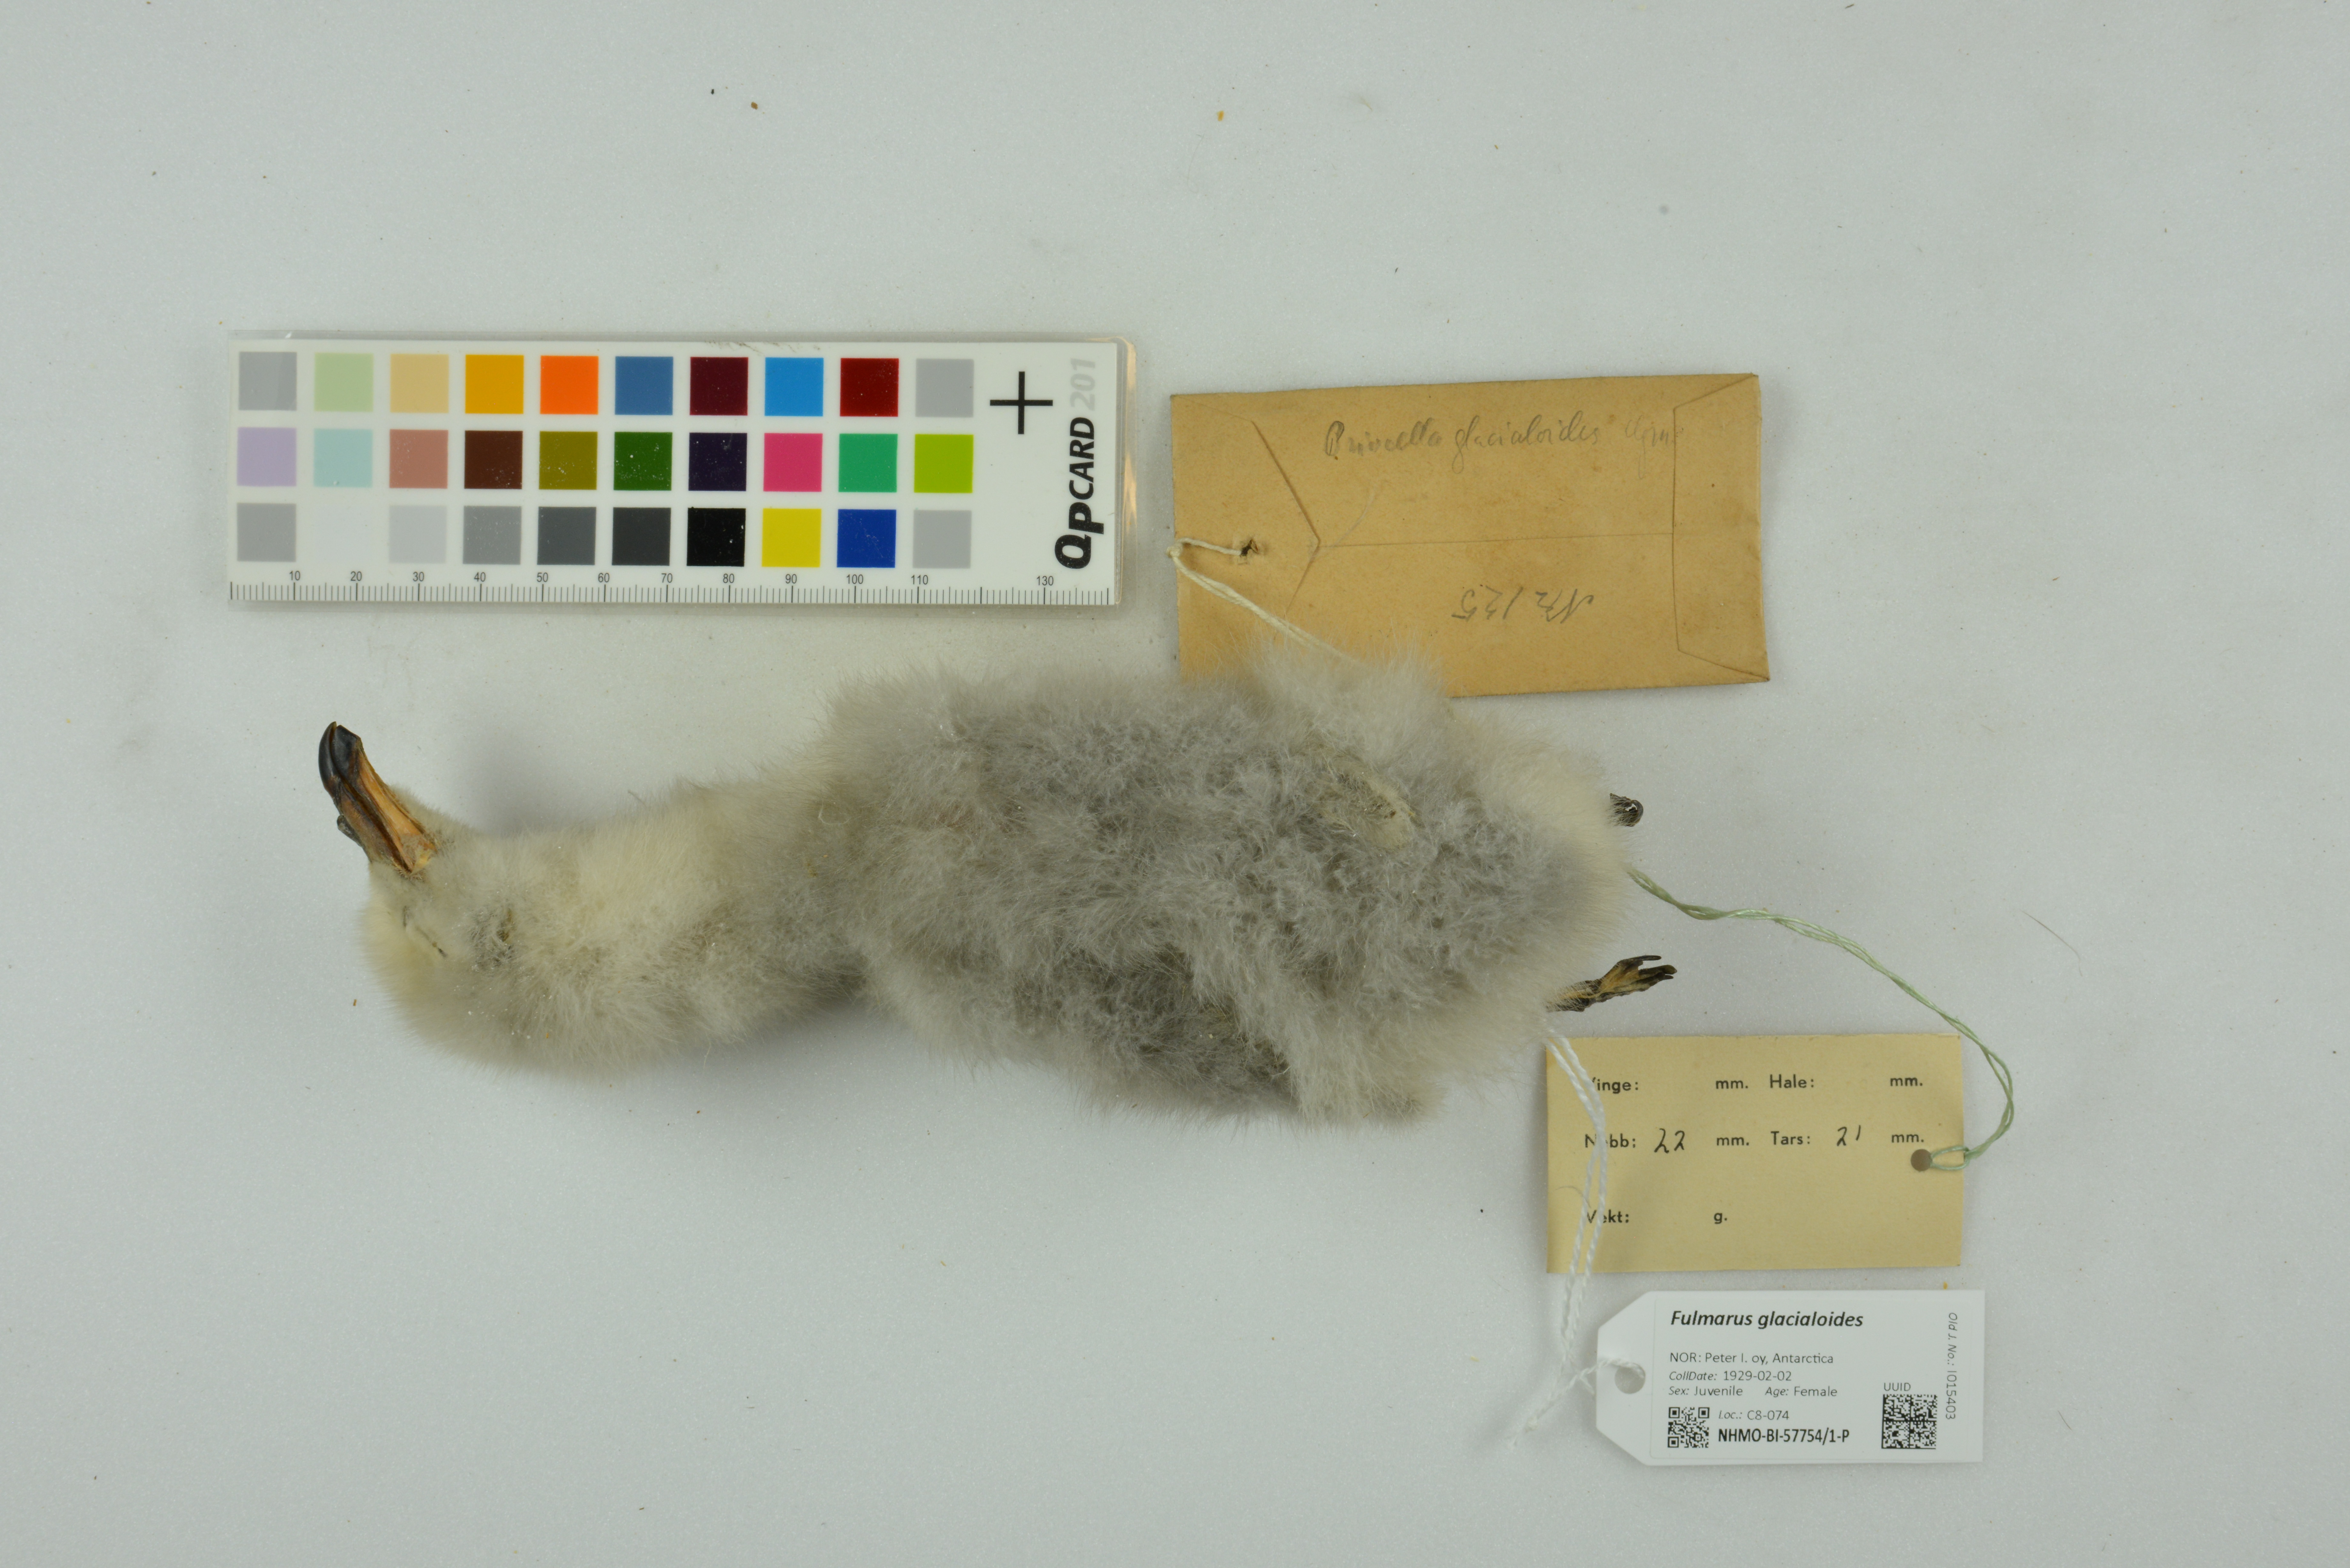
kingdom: Animalia
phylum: Chordata
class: Aves
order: Procellariiformes
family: Procellariidae
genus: Fulmarus
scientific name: Fulmarus glacialoides
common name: Southern fulmar
